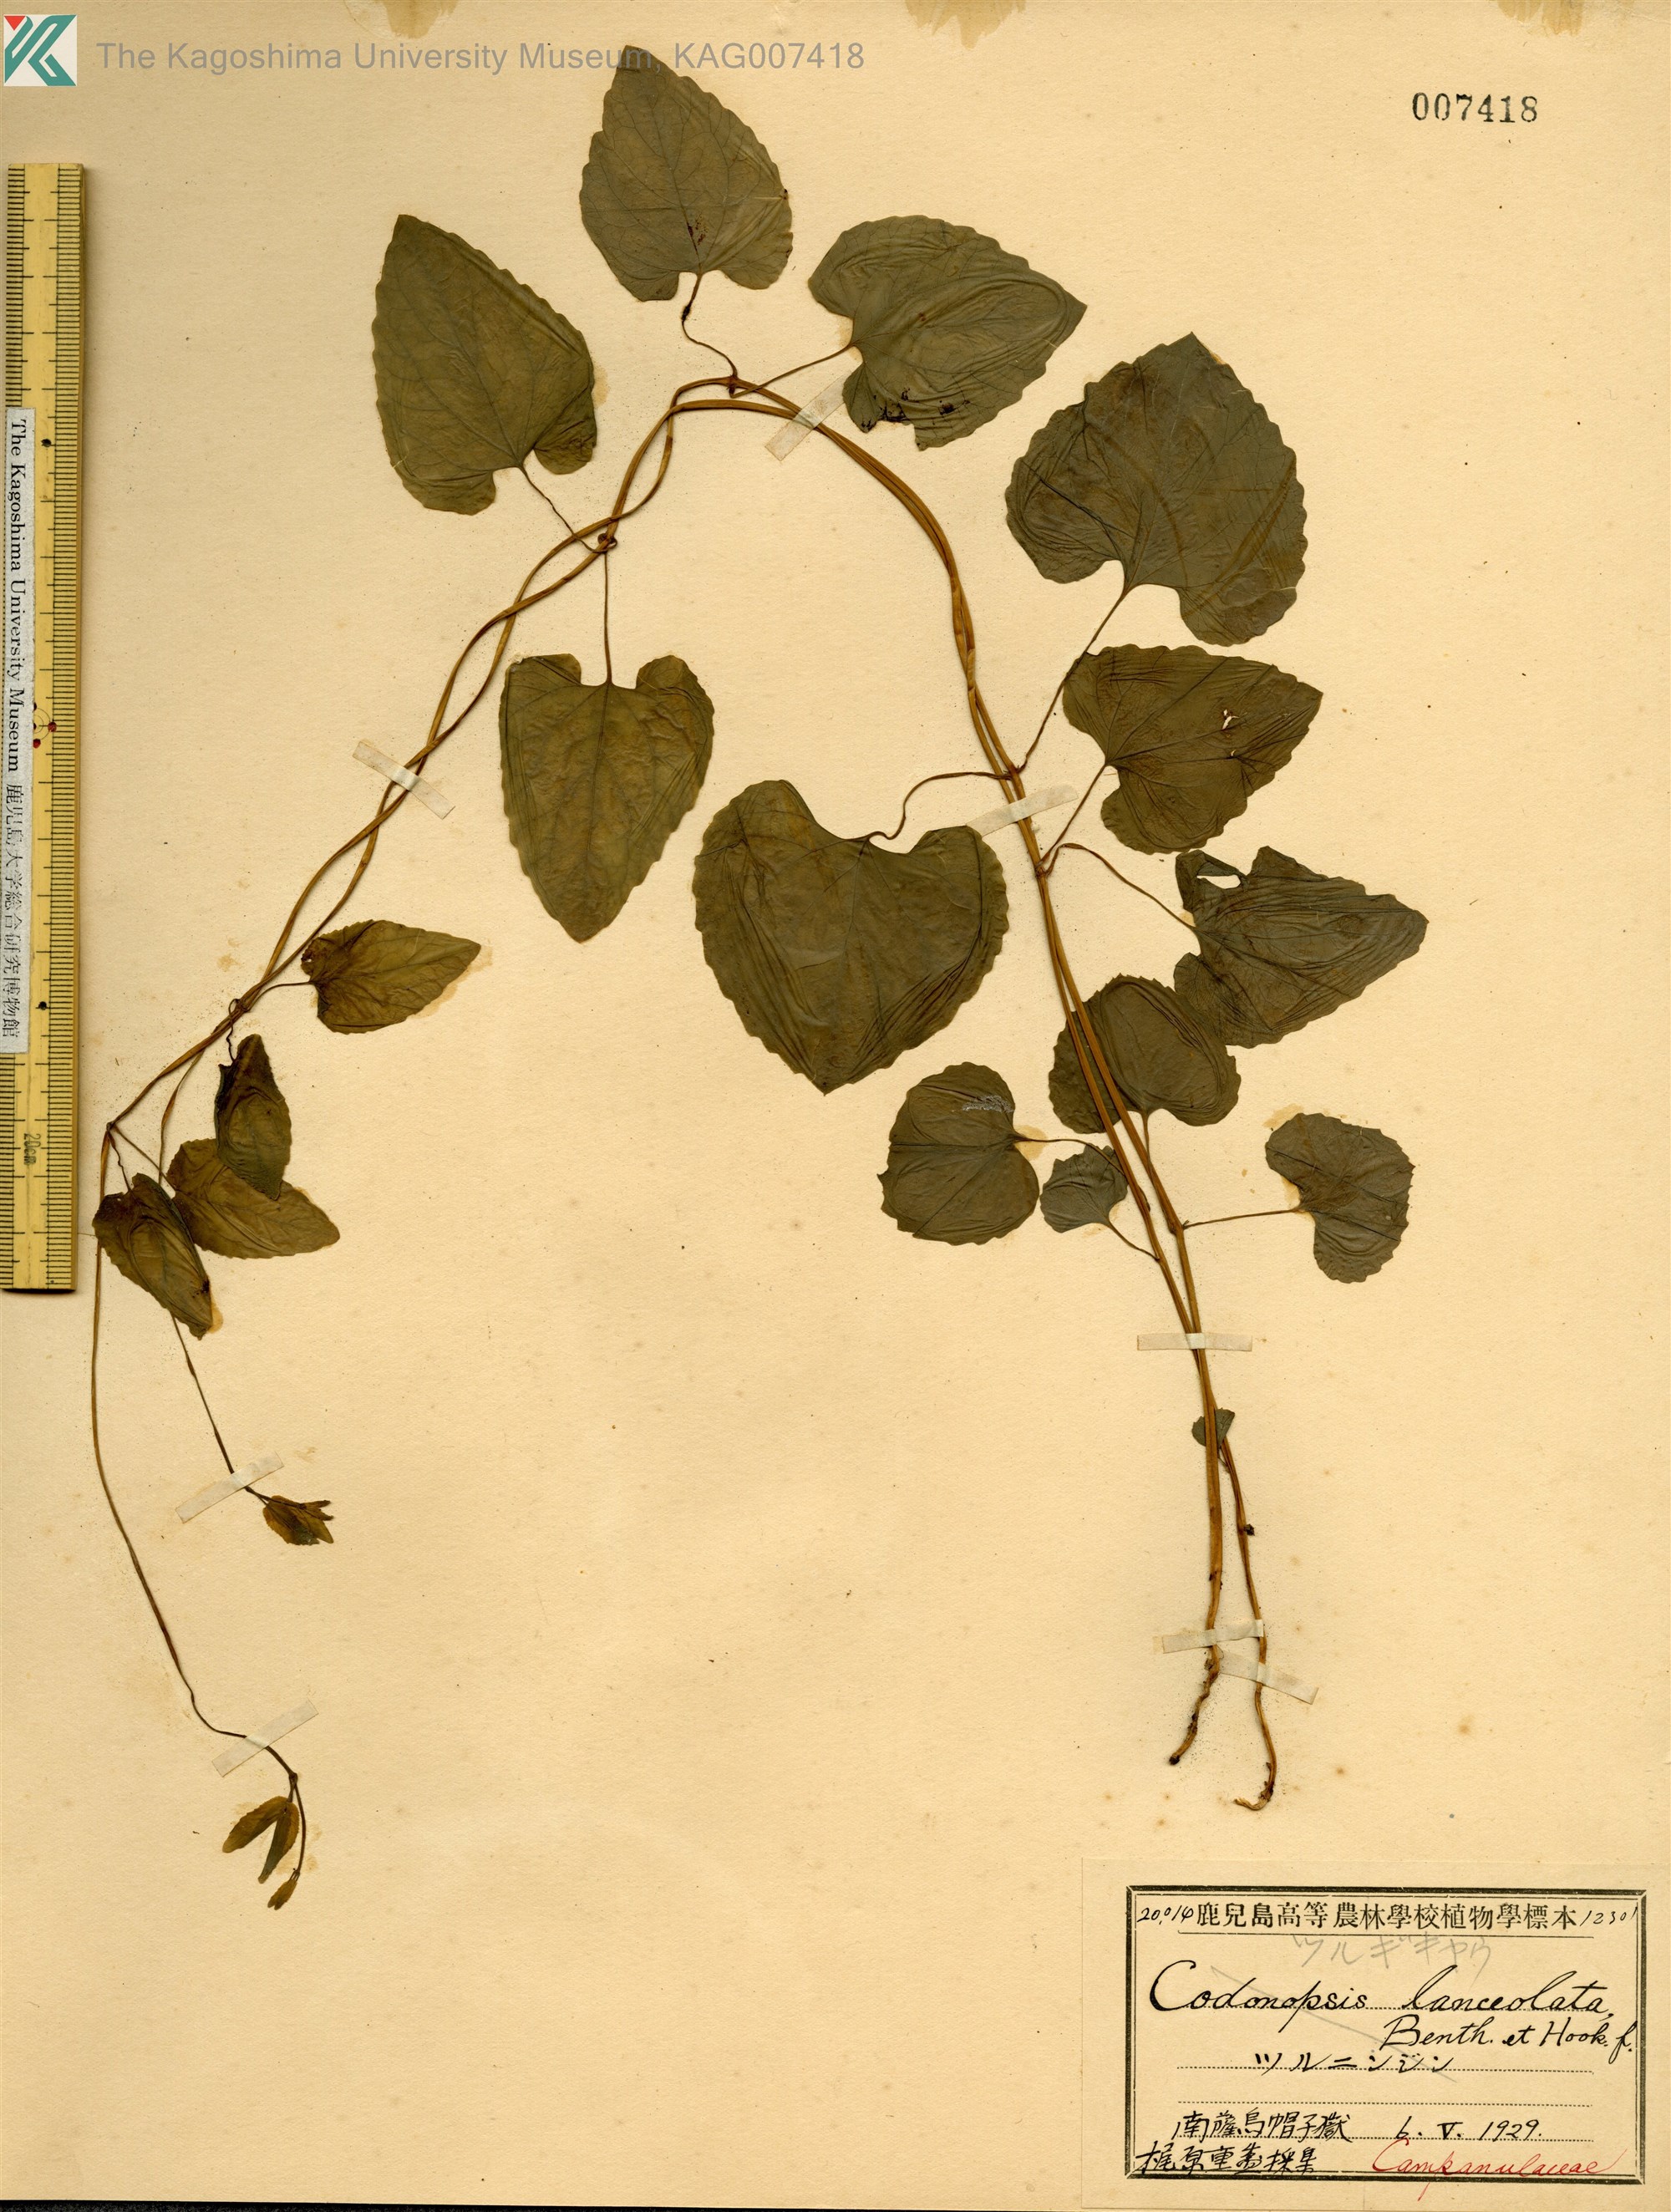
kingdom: Plantae
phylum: Tracheophyta
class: Magnoliopsida
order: Asterales
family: Campanulaceae
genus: Codonopsis
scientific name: Codonopsis javanica
